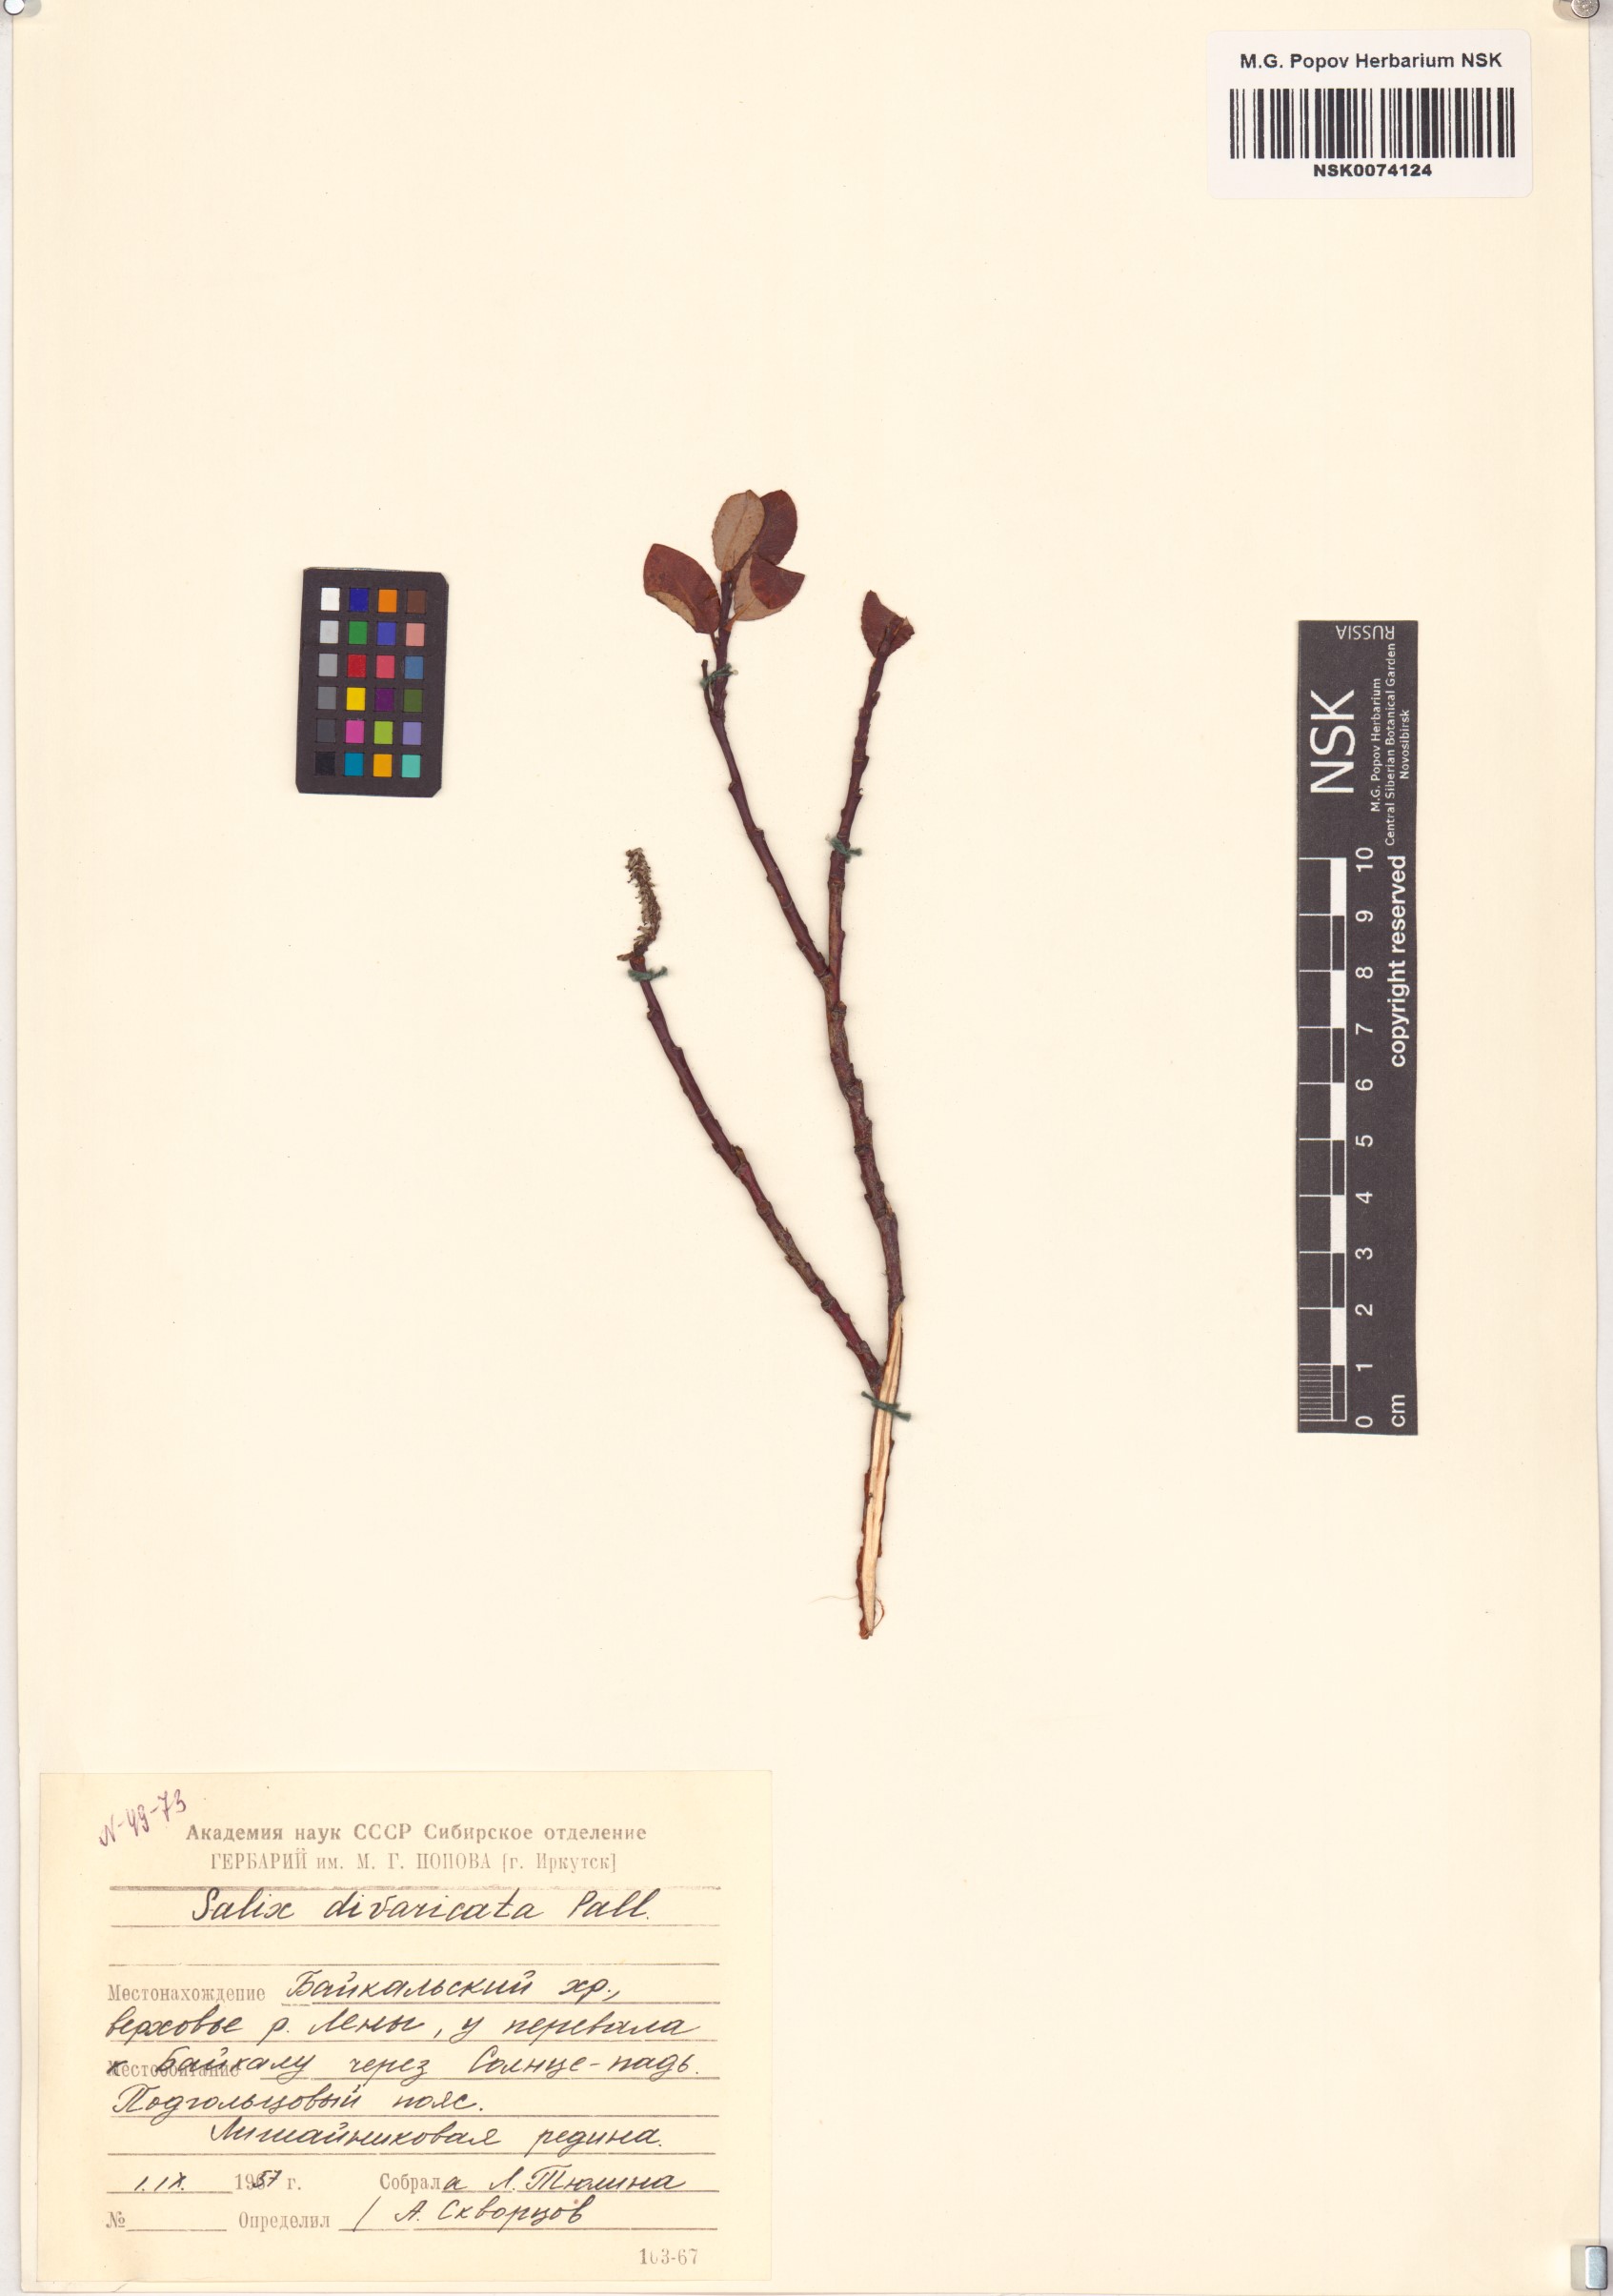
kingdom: Plantae
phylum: Tracheophyta
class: Magnoliopsida
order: Malpighiales
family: Salicaceae
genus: Salix
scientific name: Salix divaricata
